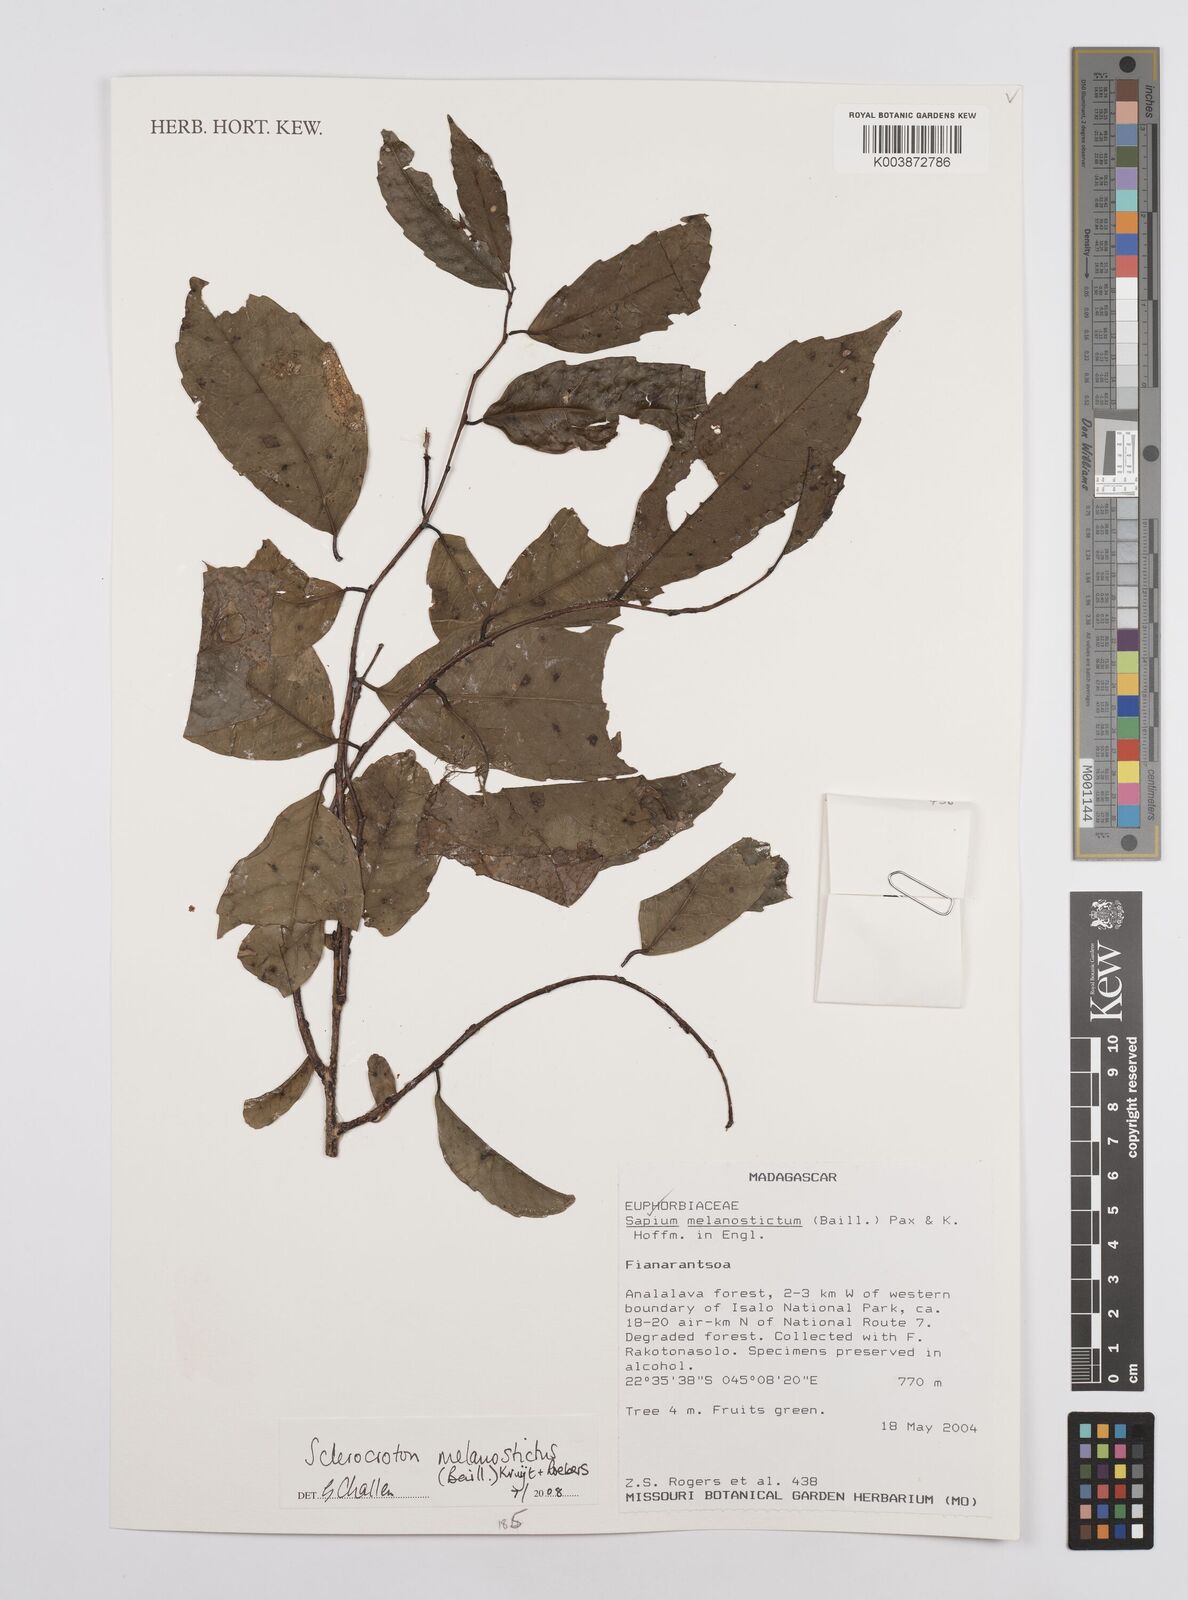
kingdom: Plantae
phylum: Tracheophyta
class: Magnoliopsida
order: Malpighiales
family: Euphorbiaceae
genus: Sclerocroton
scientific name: Sclerocroton melanostictus
